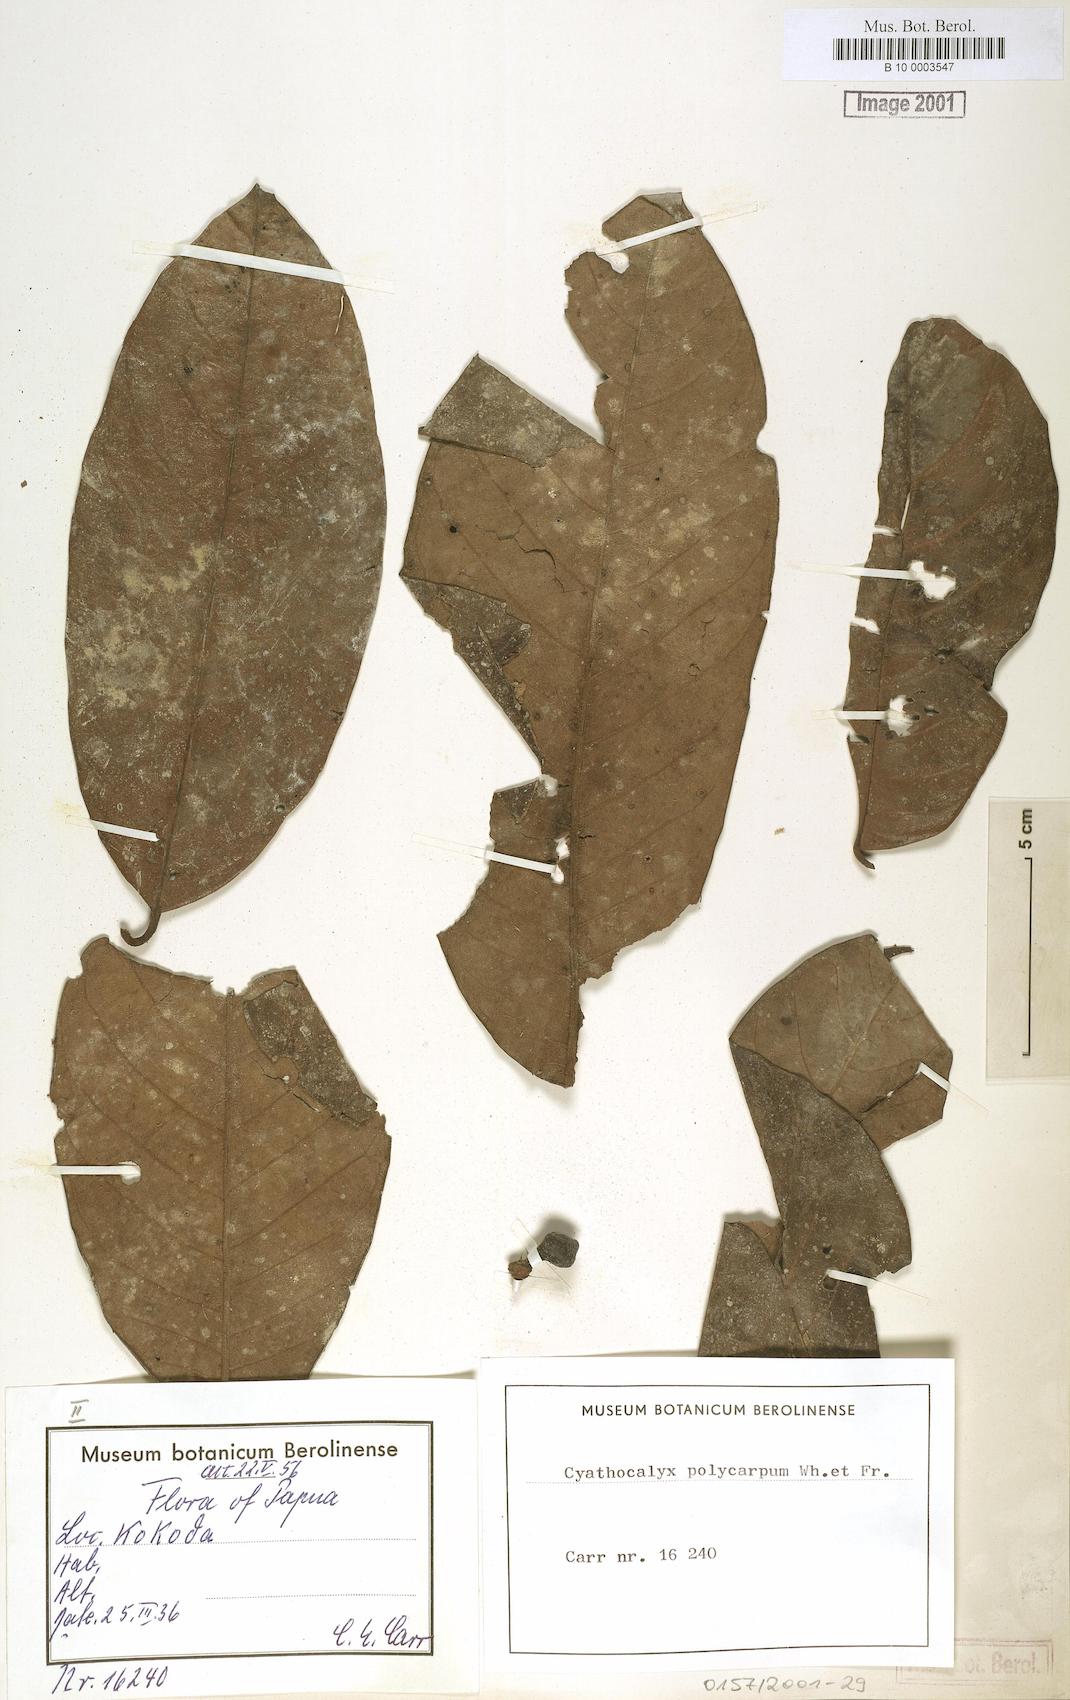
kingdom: Plantae
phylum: Tracheophyta
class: Magnoliopsida
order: Magnoliales
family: Annonaceae
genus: Drepananthus
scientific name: Drepananthus polycarpus
